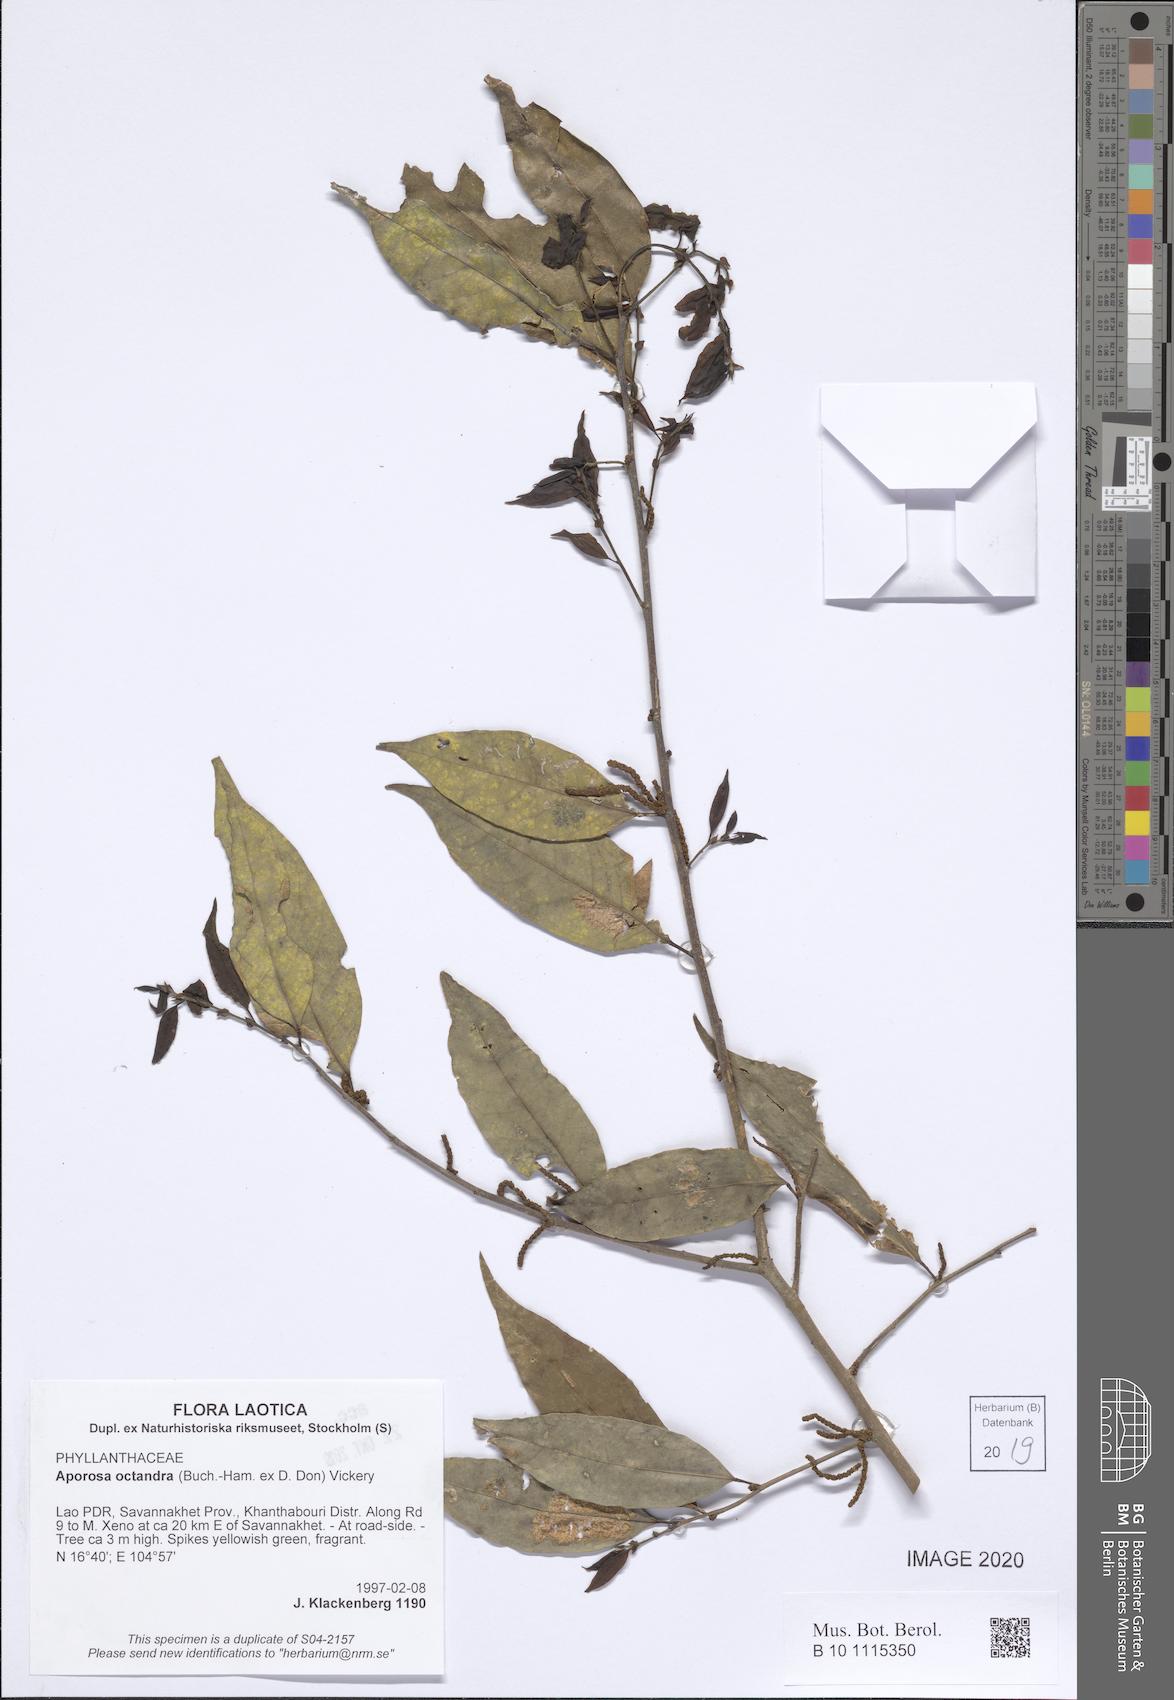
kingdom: Plantae
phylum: Tracheophyta
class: Magnoliopsida
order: Malpighiales
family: Phyllanthaceae
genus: Aporosa
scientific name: Aporosa octandra
